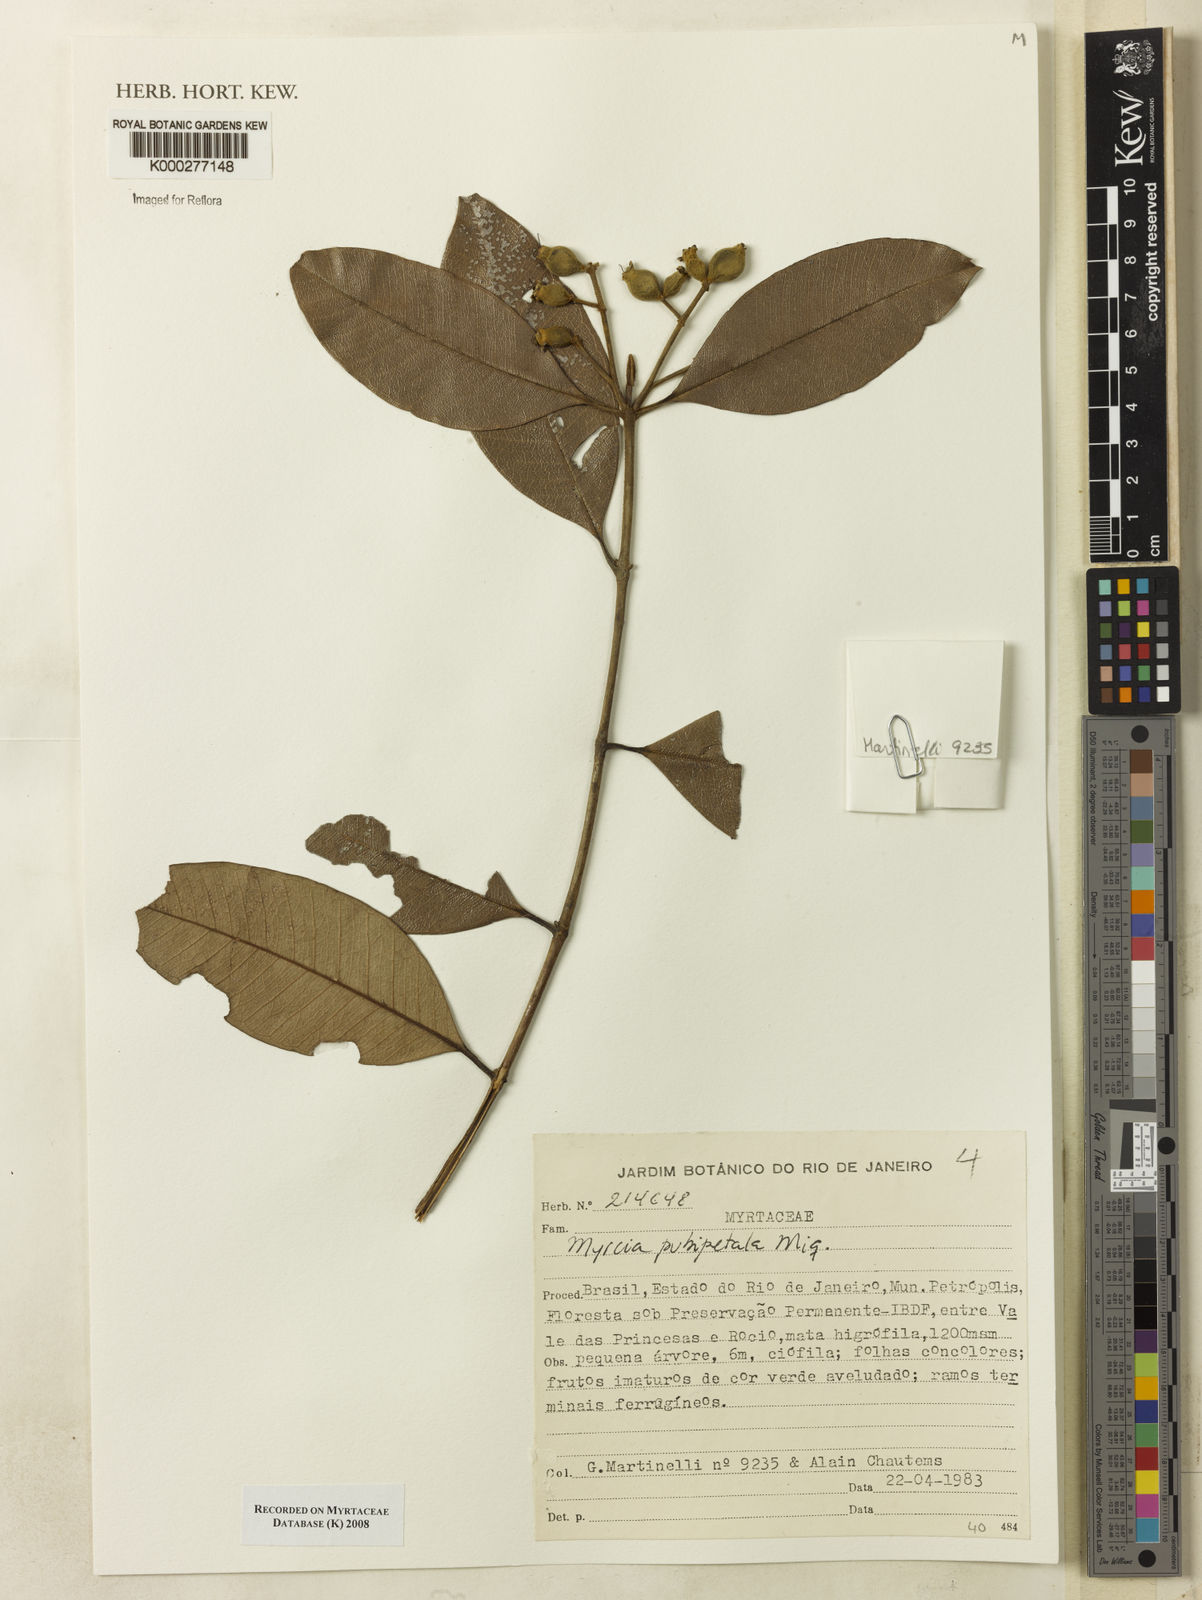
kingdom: Plantae
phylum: Tracheophyta
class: Magnoliopsida
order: Myrtales
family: Myrtaceae
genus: Myrcia
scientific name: Myrcia pubipetala
